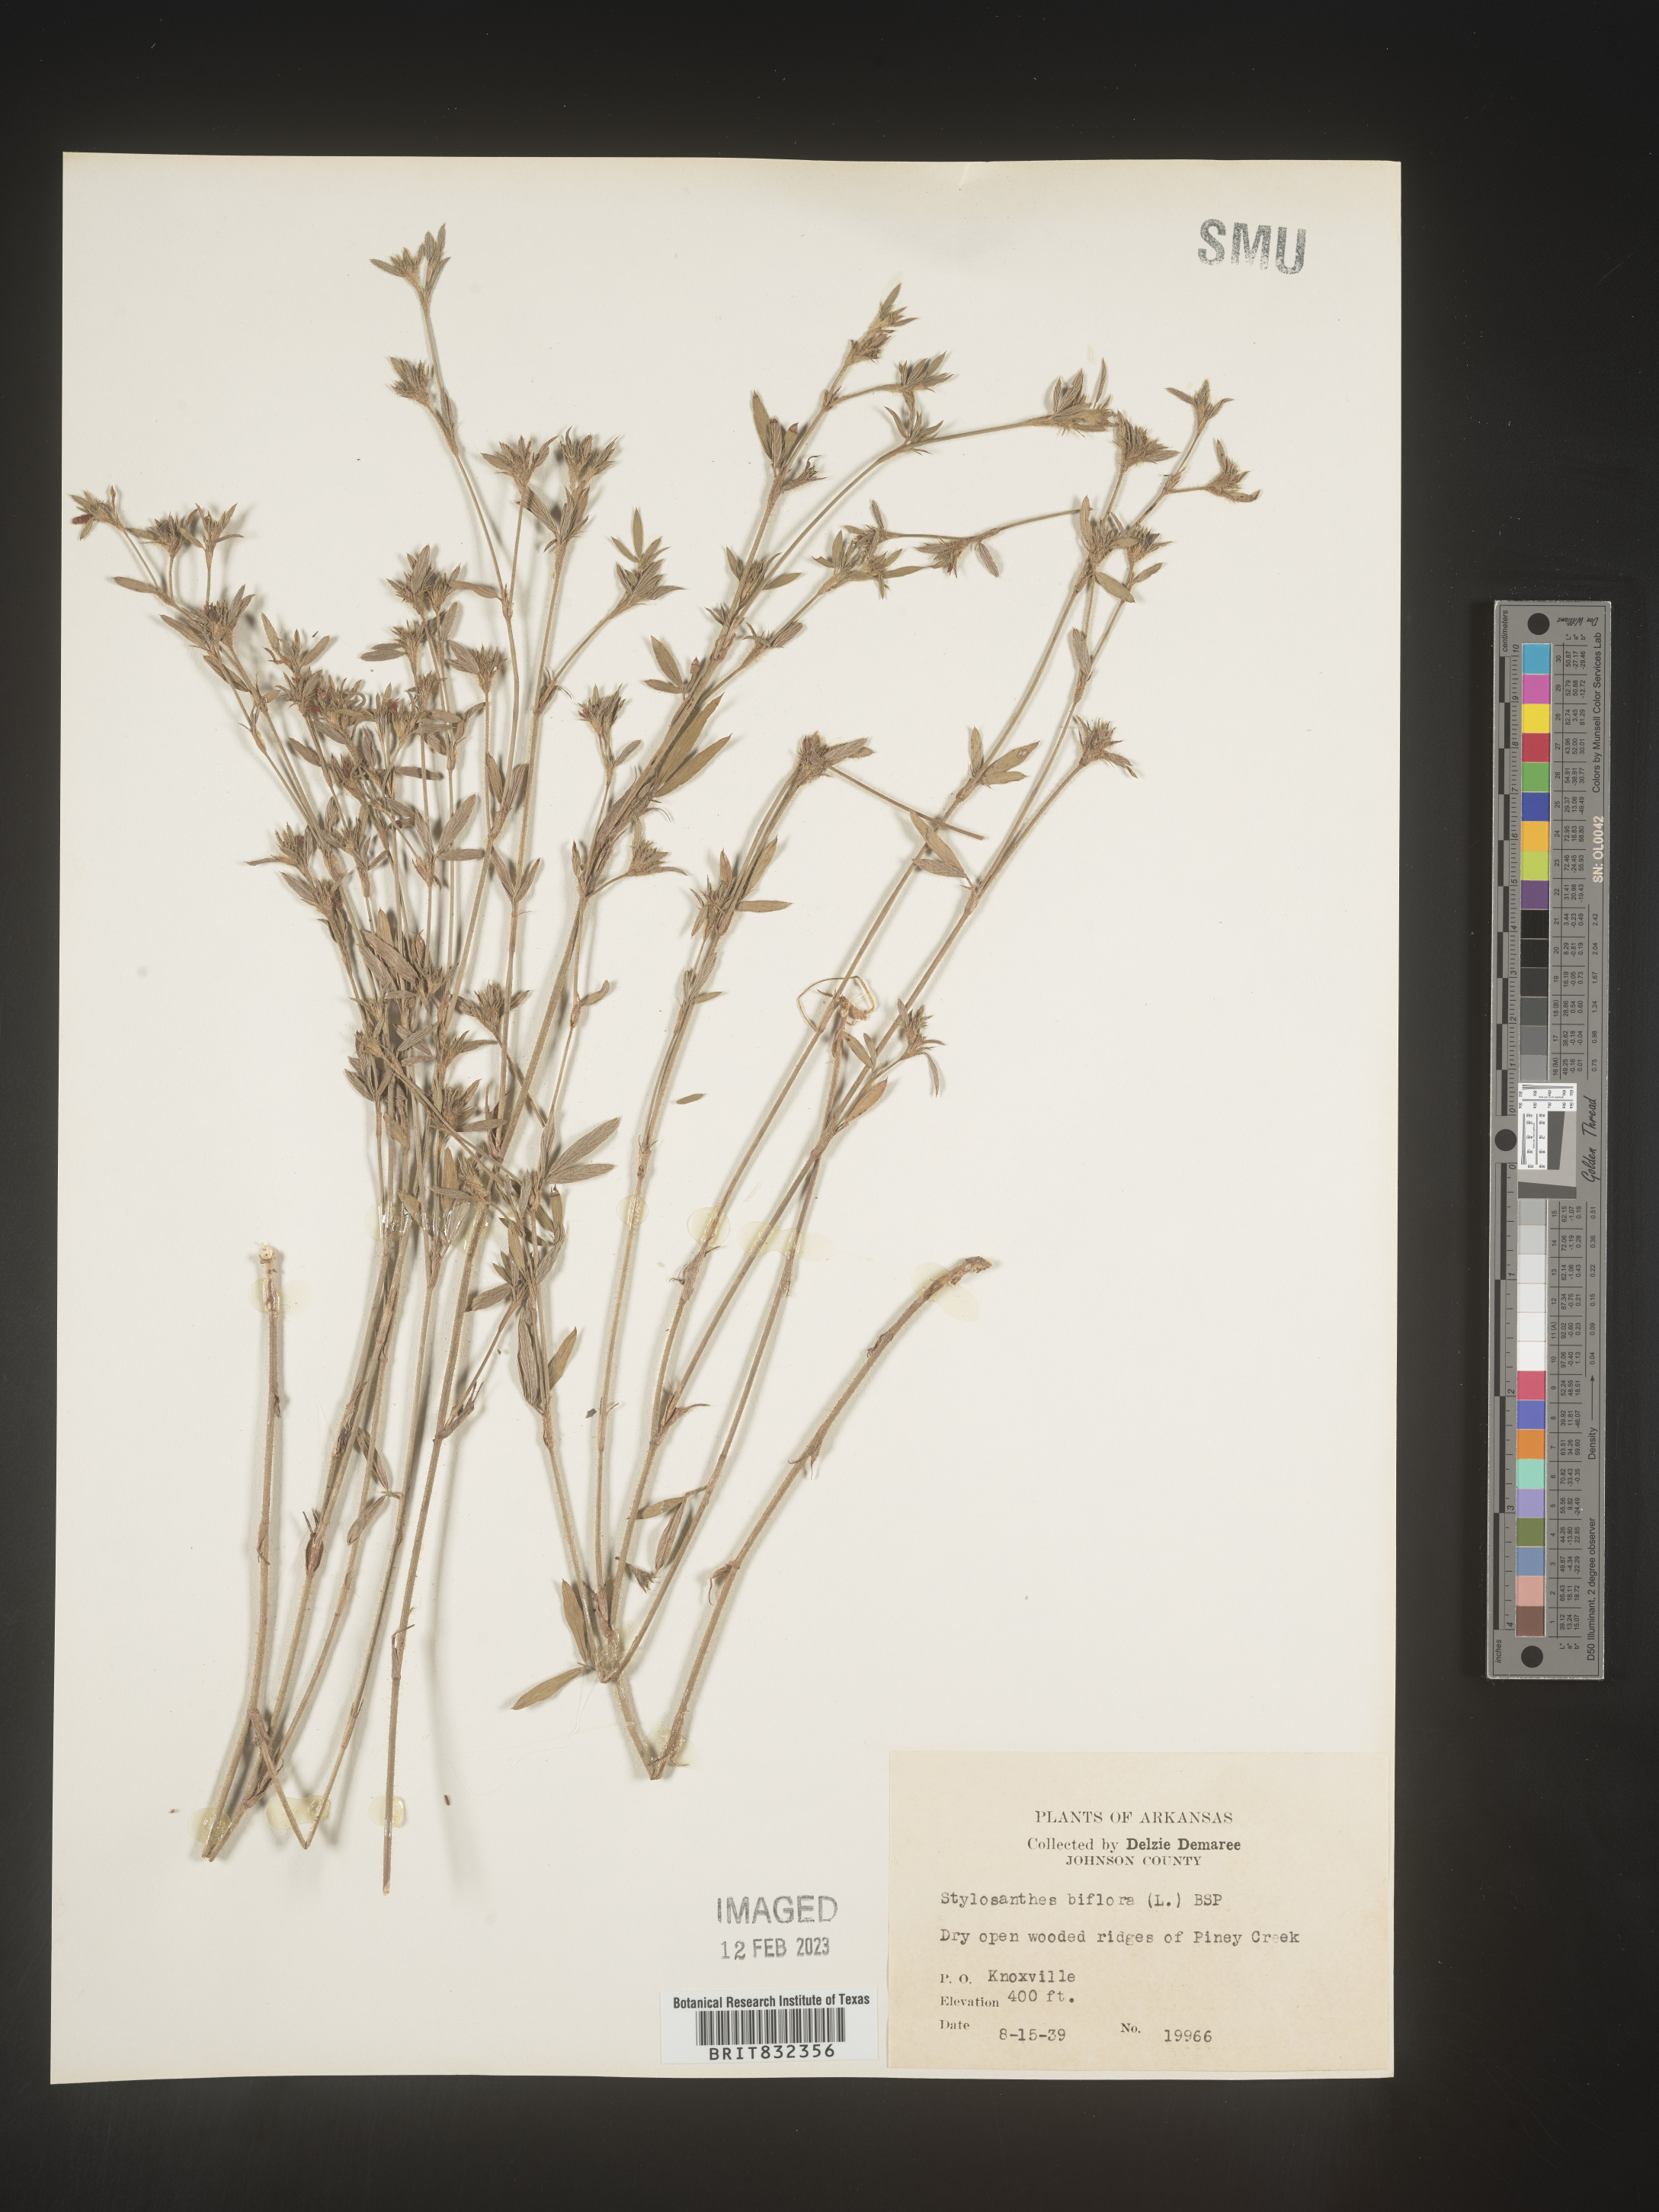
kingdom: Plantae
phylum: Tracheophyta
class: Magnoliopsida
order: Fabales
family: Fabaceae
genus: Stylosanthes
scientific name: Stylosanthes biflora
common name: Two-flower pencil-flower
